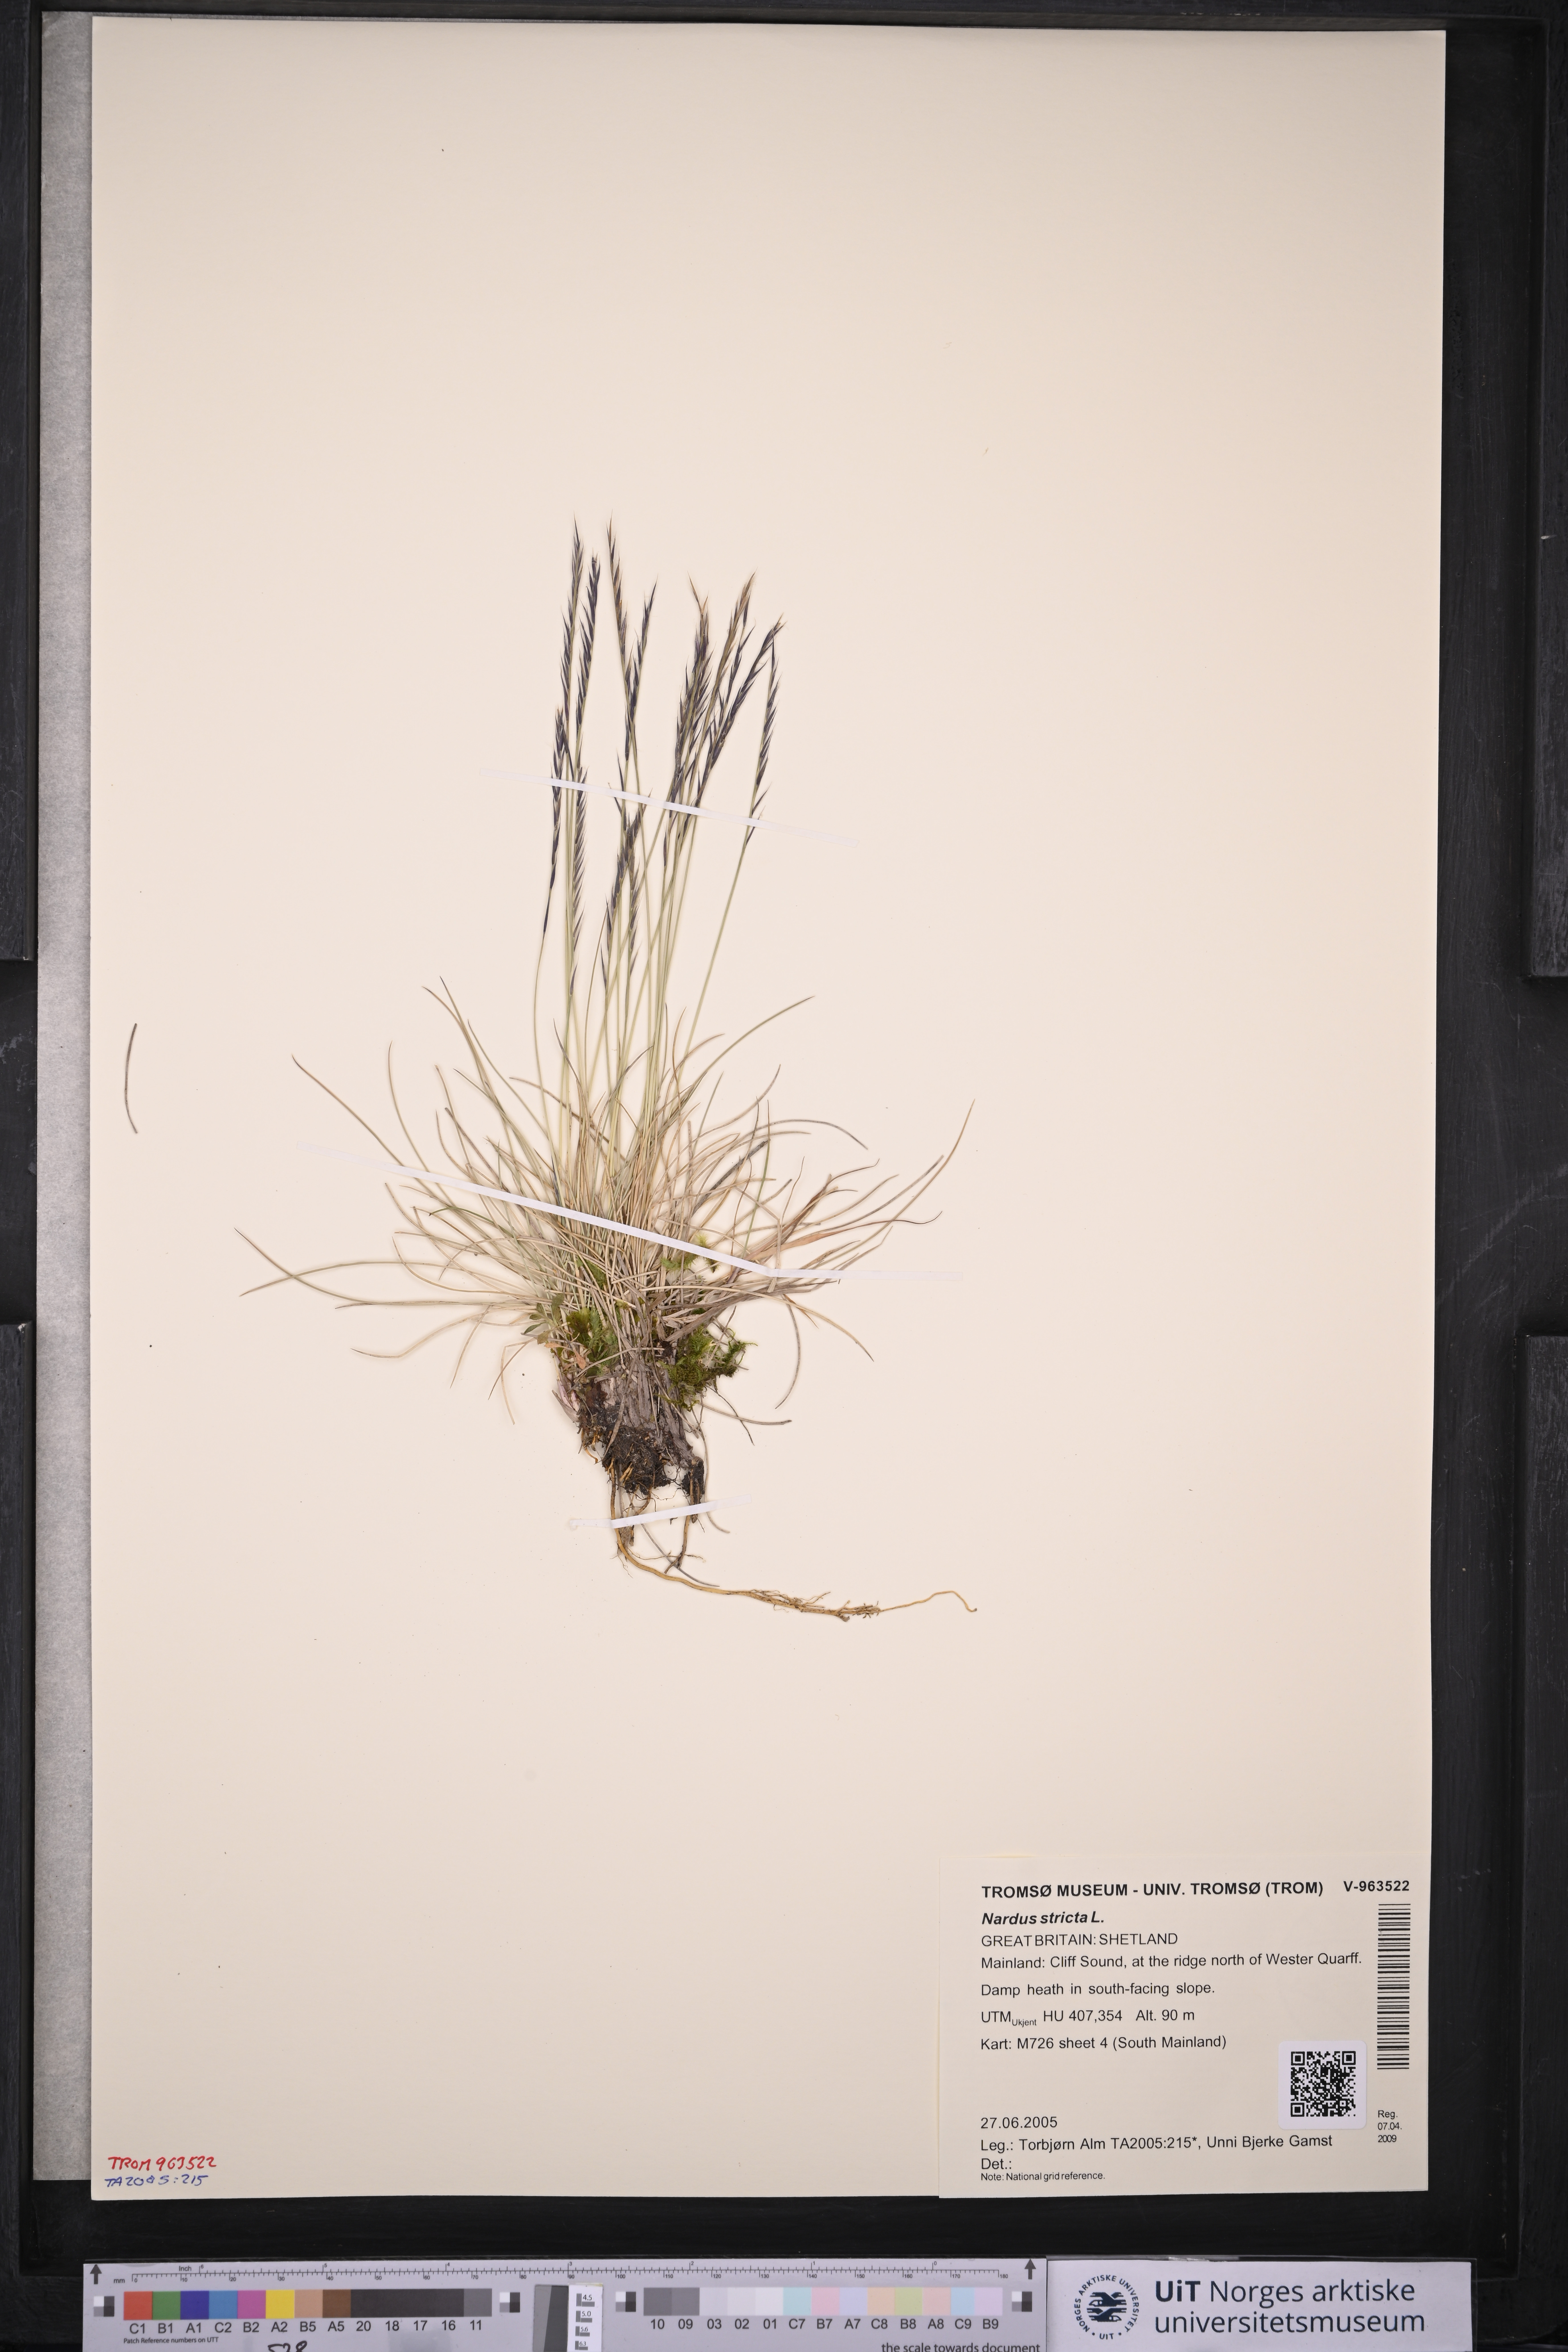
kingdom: Plantae
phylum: Tracheophyta
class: Liliopsida
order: Poales
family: Poaceae
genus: Nardus
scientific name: Nardus stricta
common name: Mat-grass
